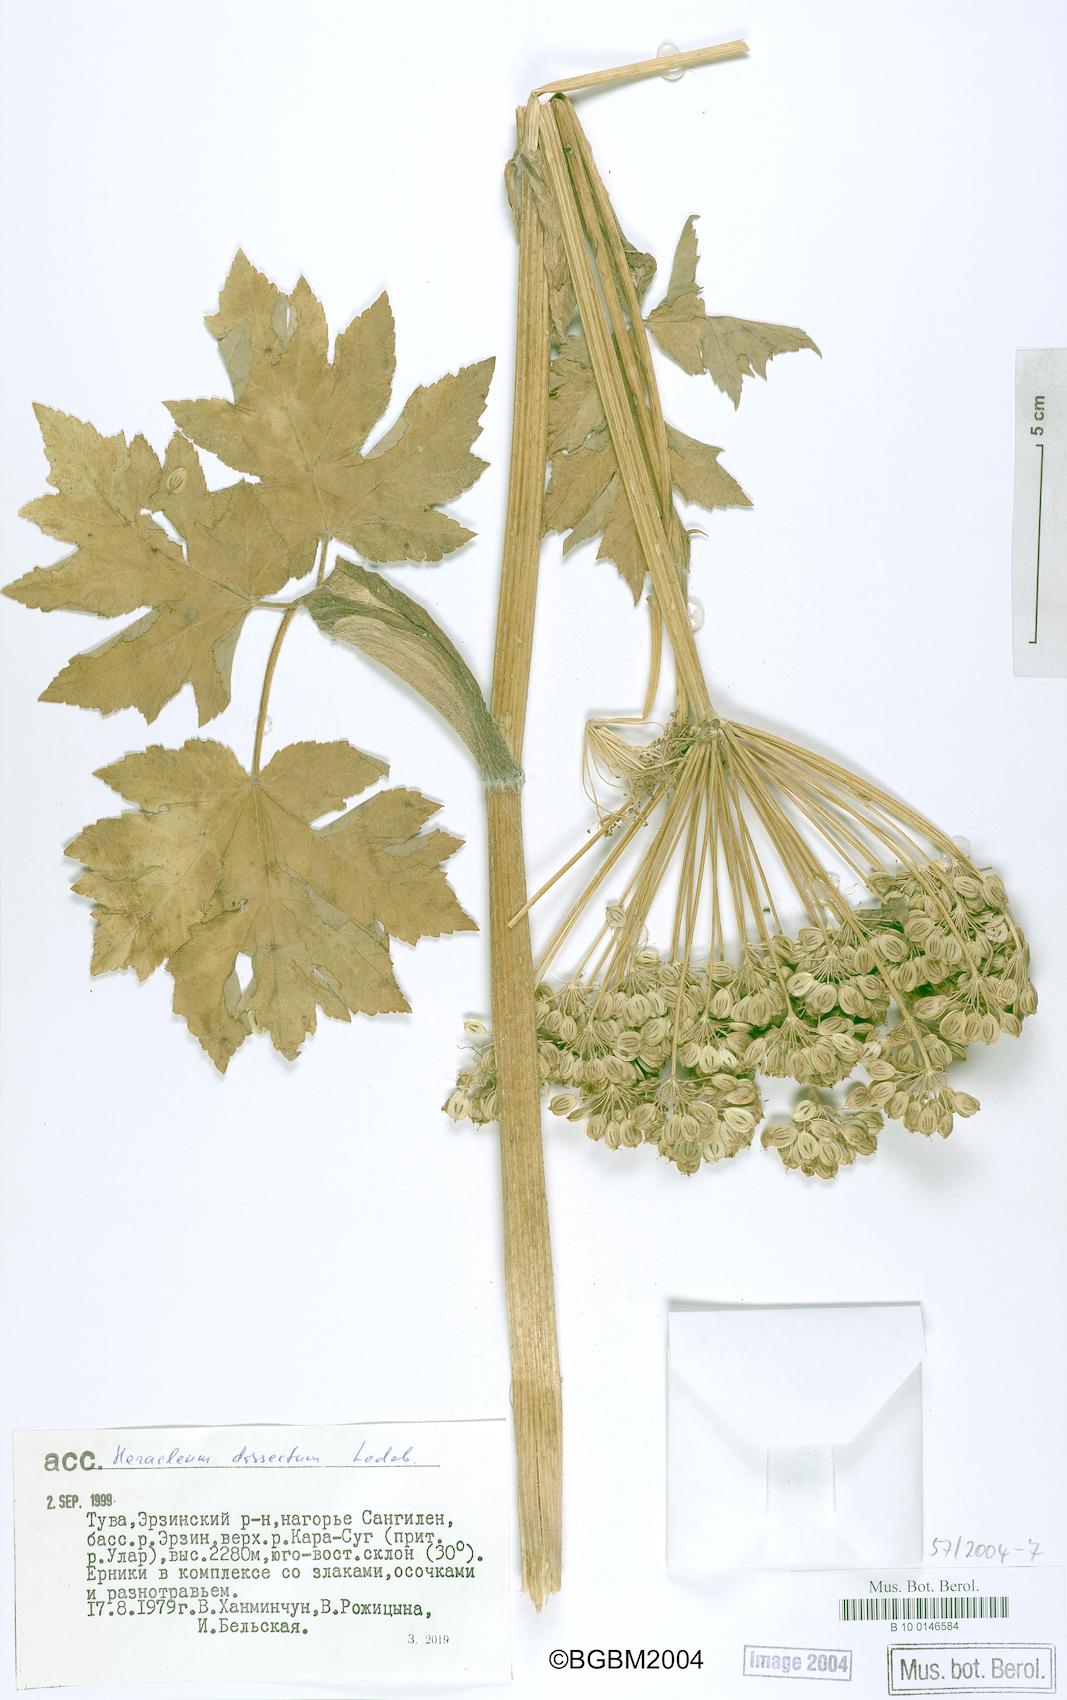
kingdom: Plantae
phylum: Tracheophyta
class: Magnoliopsida
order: Apiales
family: Apiaceae
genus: Heracleum
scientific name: Heracleum dissectum
